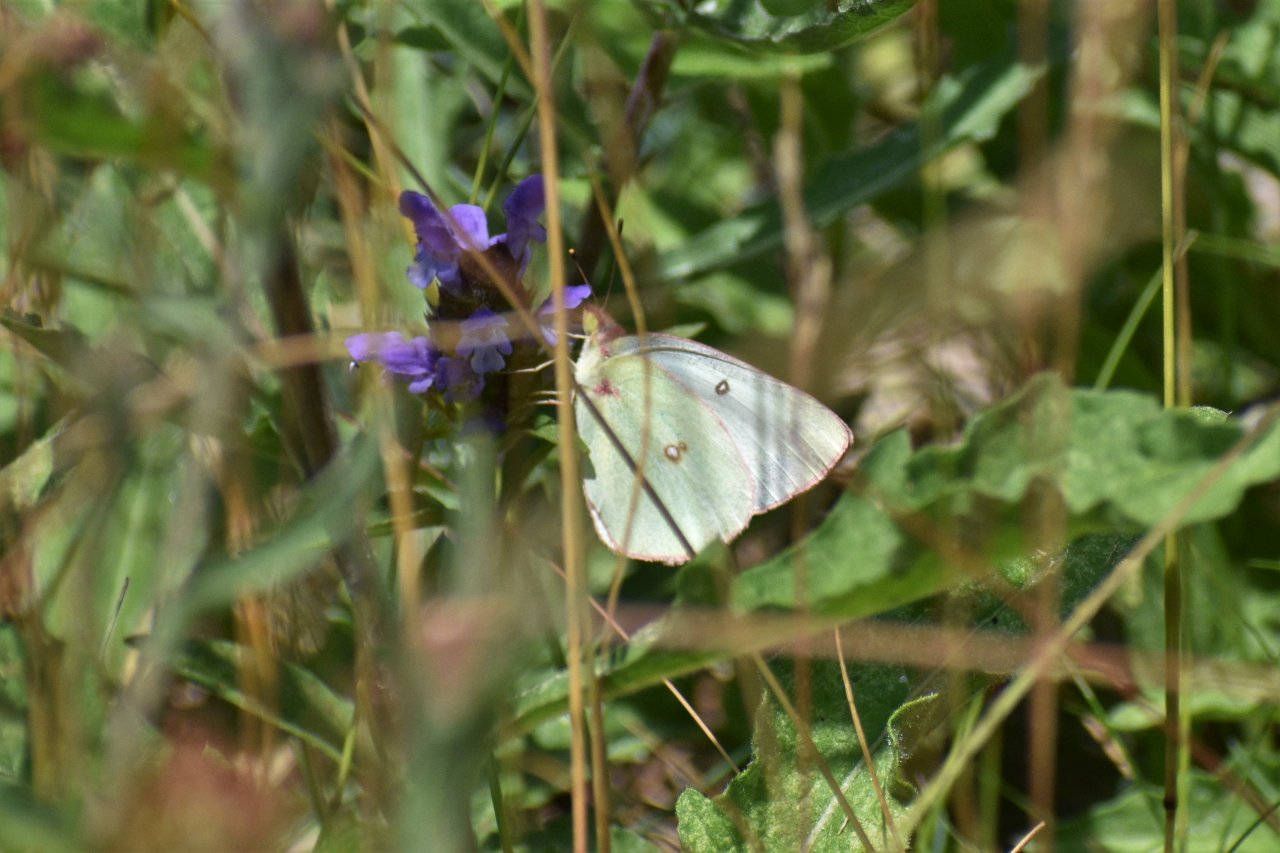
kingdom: Animalia
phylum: Arthropoda
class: Insecta
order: Lepidoptera
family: Pieridae
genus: Colias
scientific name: Colias philodice
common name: Clouded Sulphur
